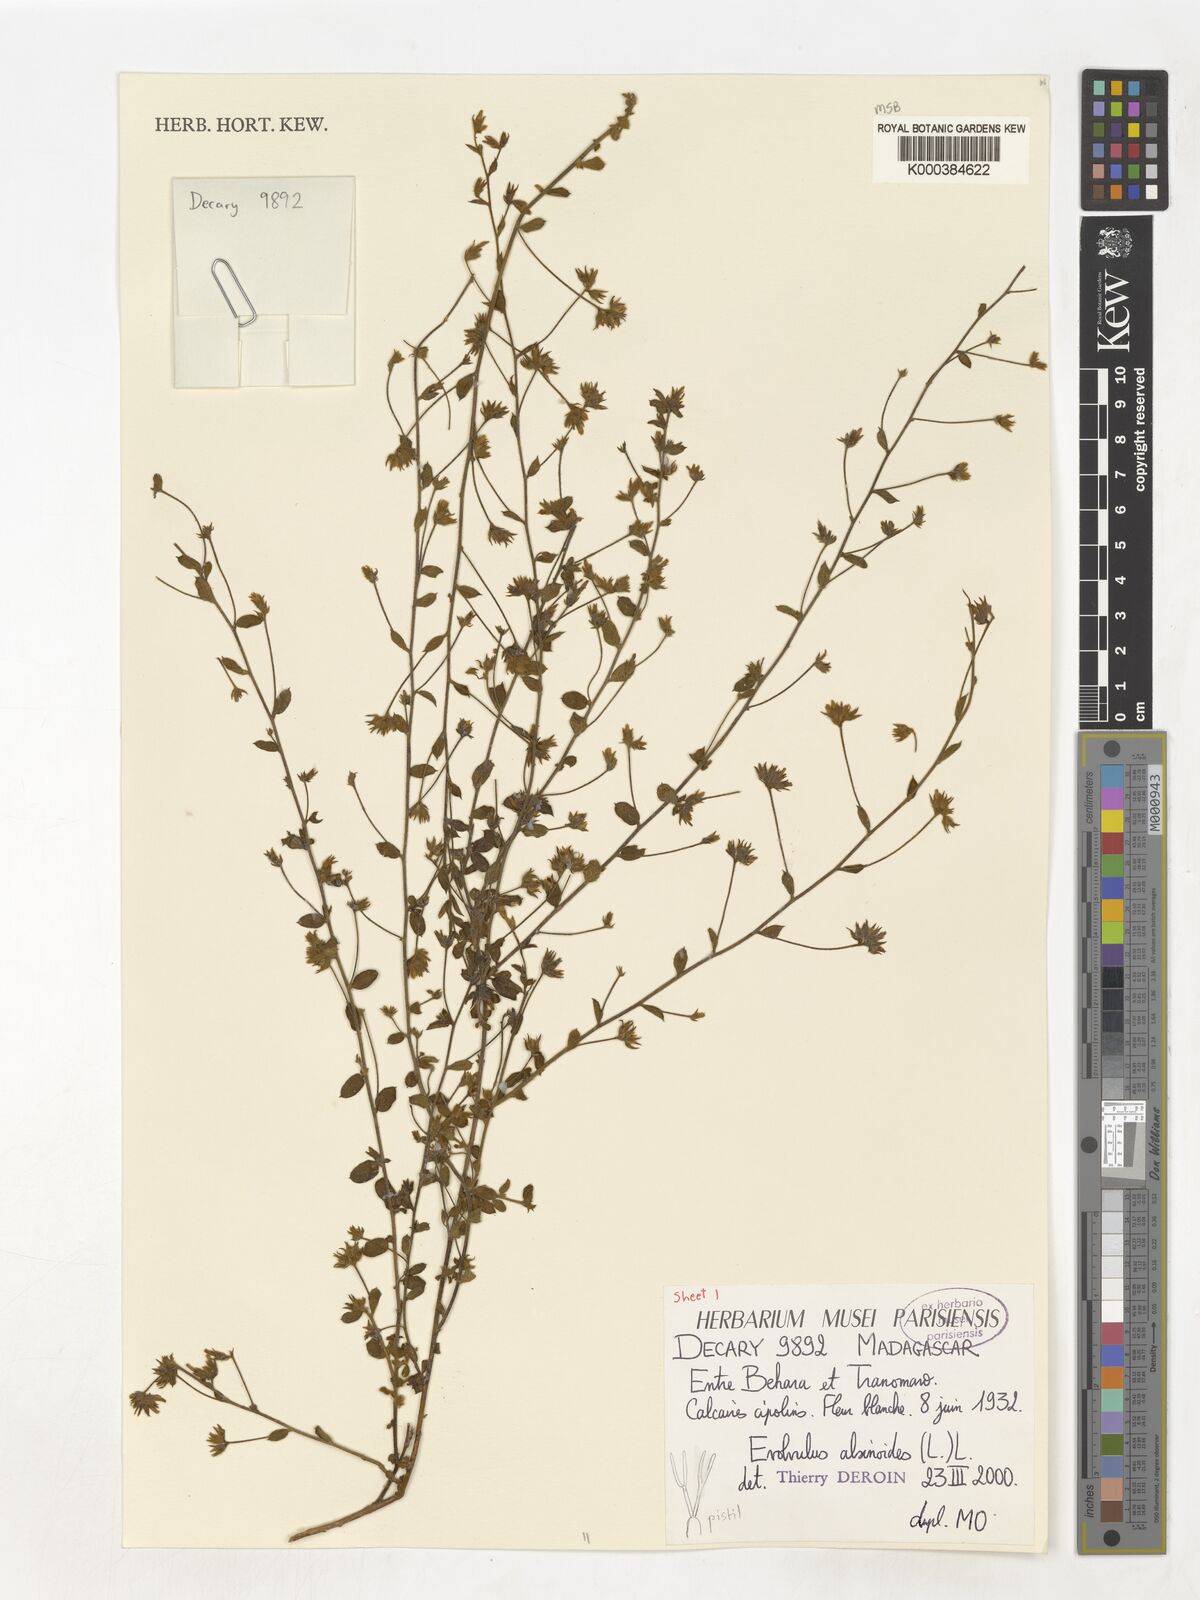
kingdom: Plantae
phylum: Tracheophyta
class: Magnoliopsida
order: Solanales
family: Convolvulaceae
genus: Evolvulus
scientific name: Evolvulus alsinoides
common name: Slender dwarf morning-glory
